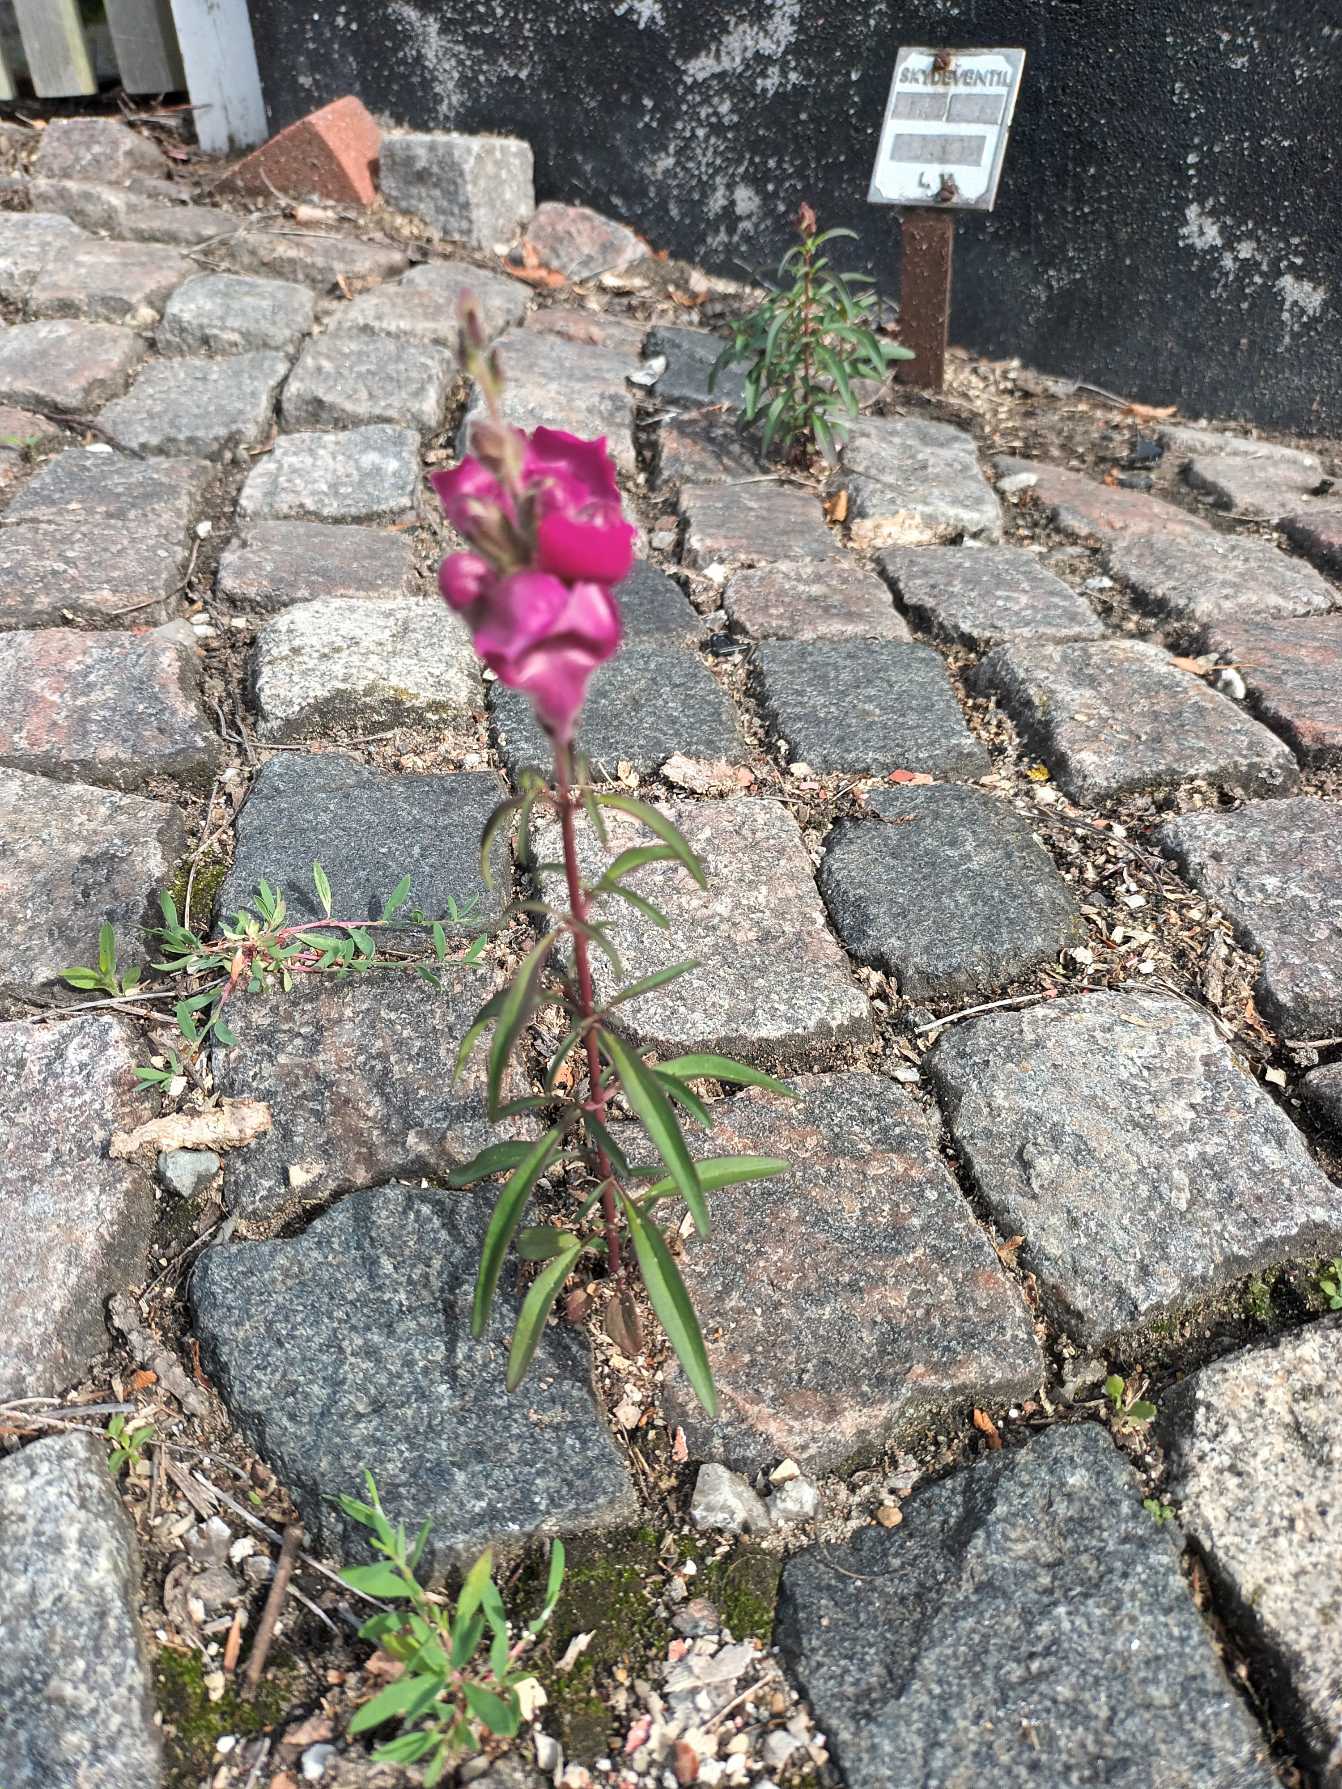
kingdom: Plantae
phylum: Tracheophyta
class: Magnoliopsida
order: Lamiales
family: Plantaginaceae
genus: Antirrhinum
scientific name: Antirrhinum majus
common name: Have-løvemund
